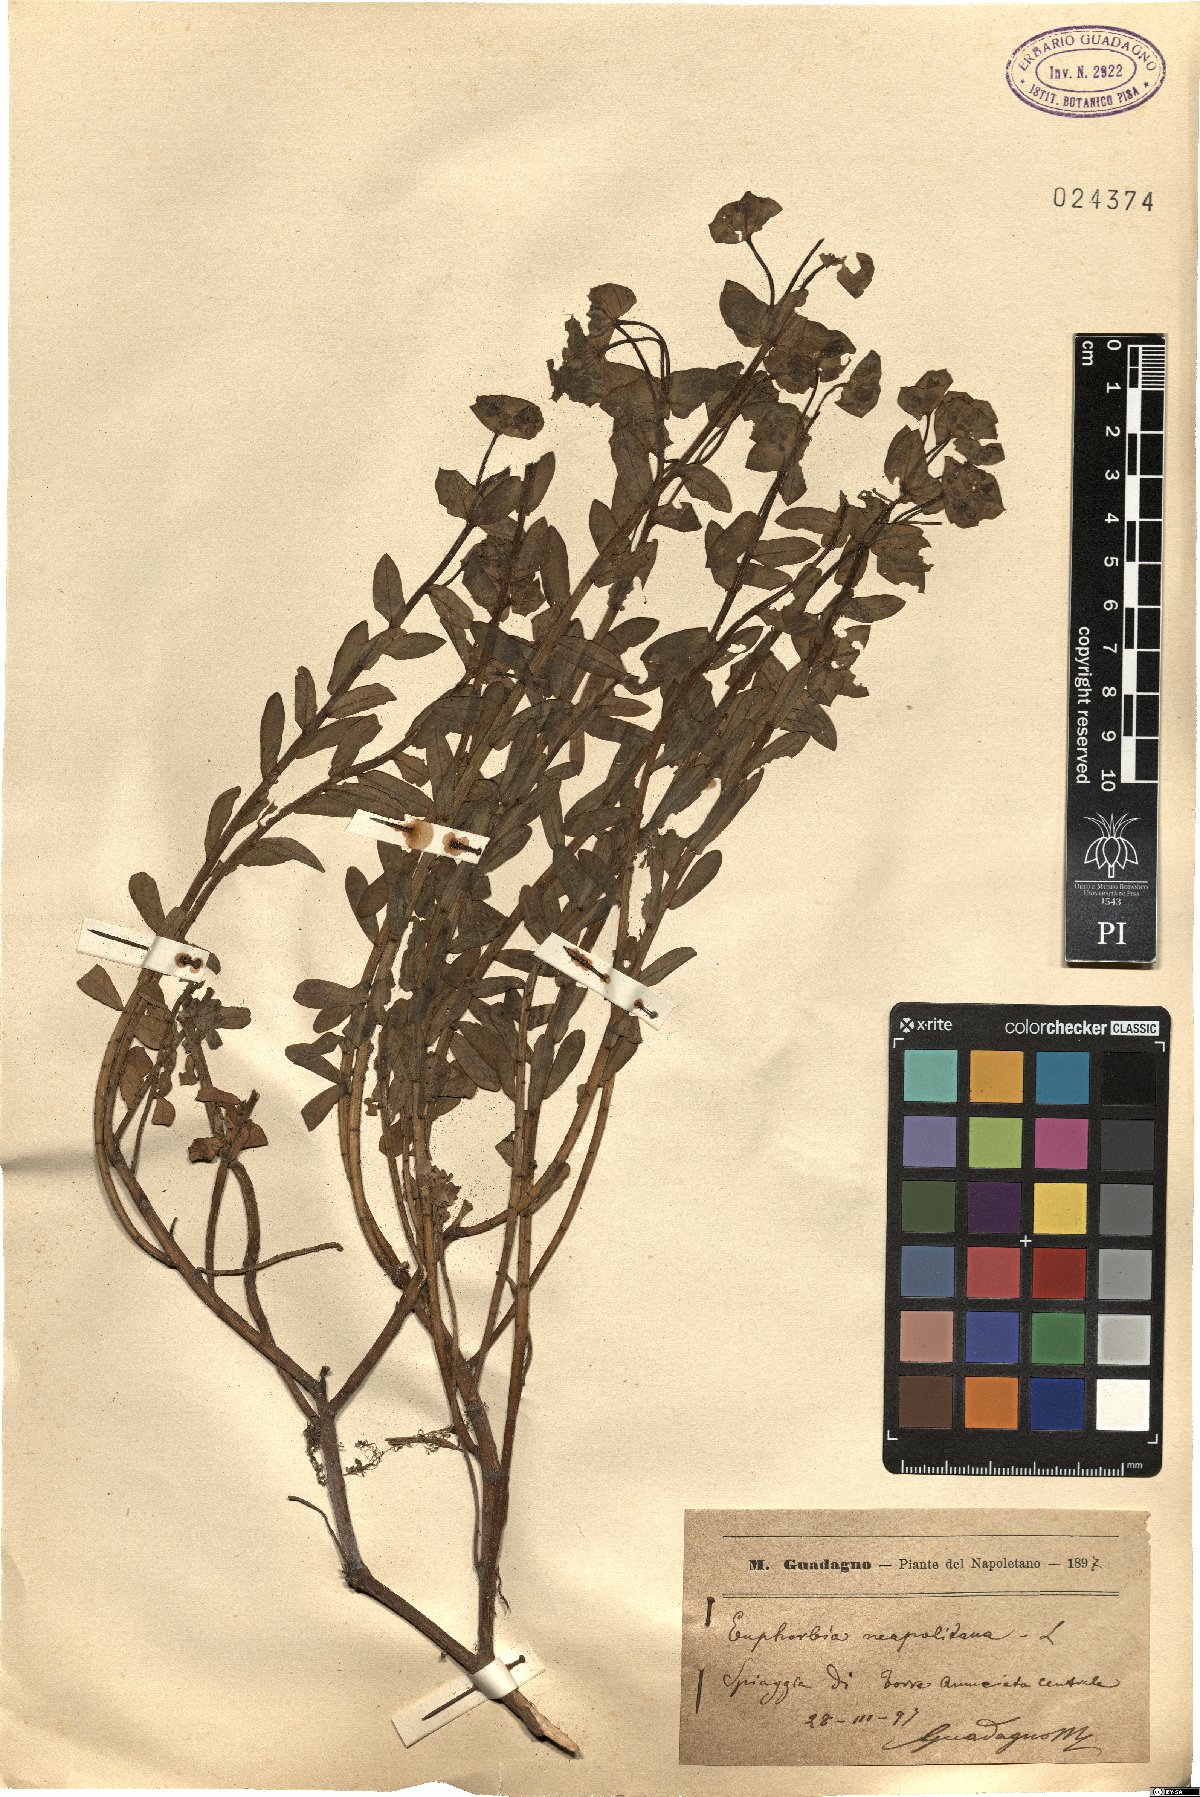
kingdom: Plantae
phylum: Tracheophyta
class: Magnoliopsida
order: Malpighiales
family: Euphorbiaceae
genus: Euphorbia
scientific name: Euphorbia terracina
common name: Geraldton carnation weed
